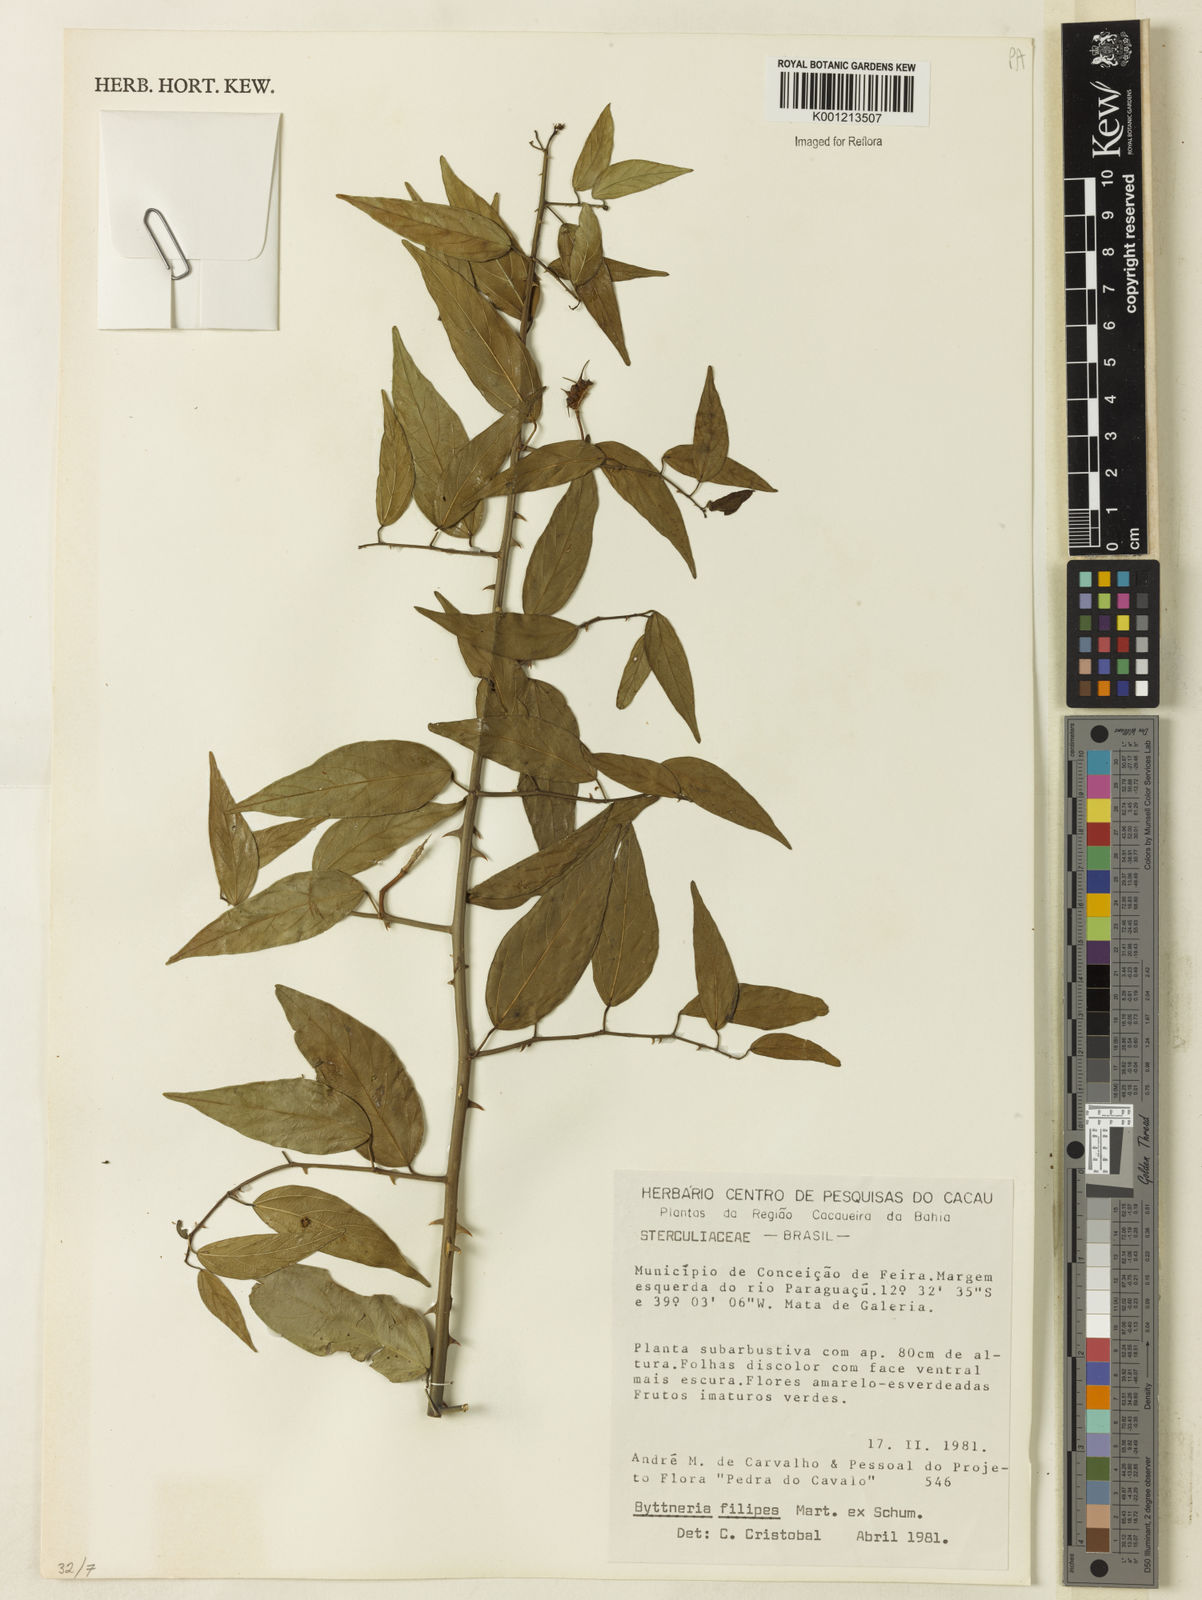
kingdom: Plantae
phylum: Tracheophyta
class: Magnoliopsida
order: Malvales
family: Malvaceae
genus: Byttneria
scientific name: Byttneria filipes
